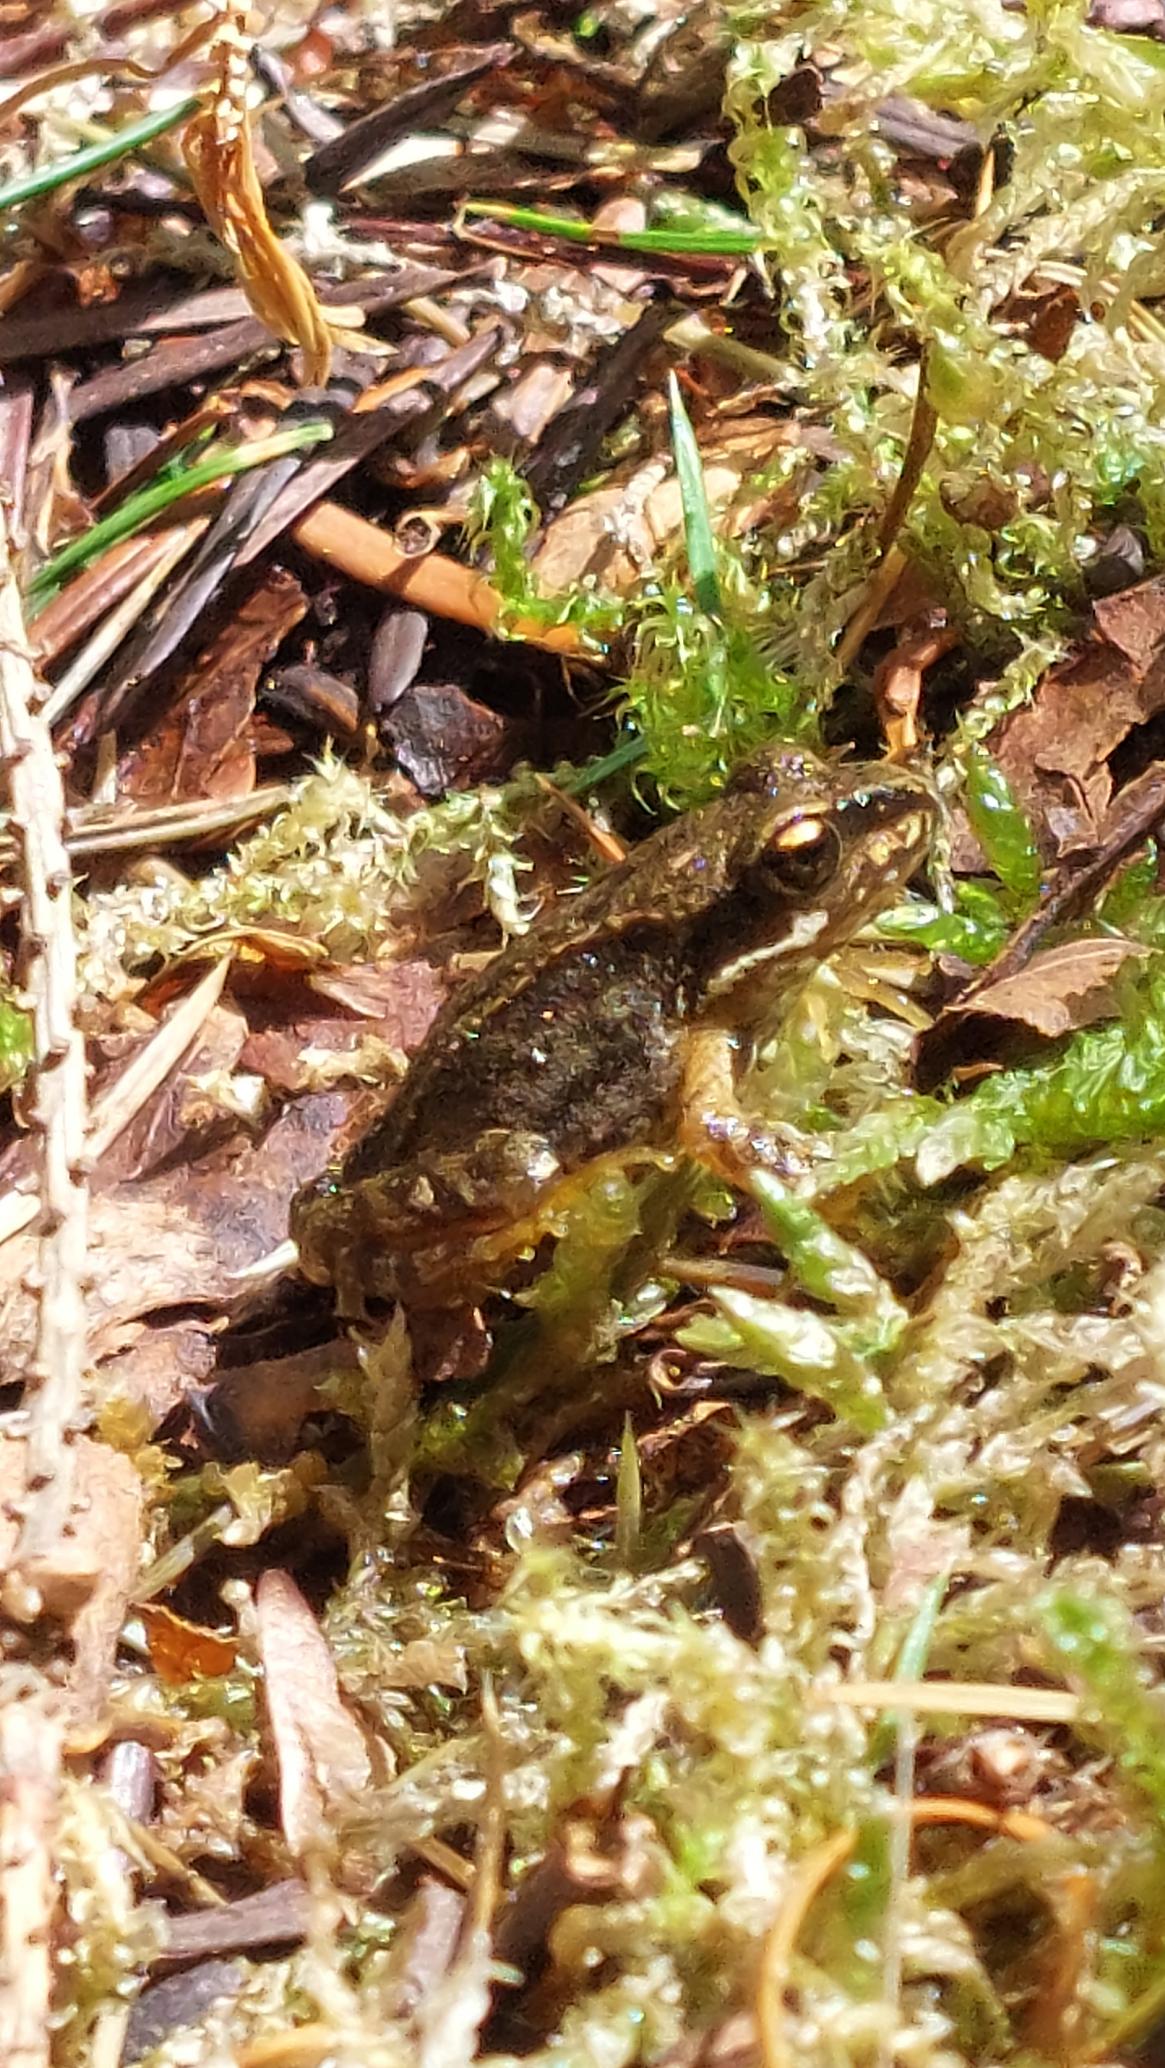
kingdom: Animalia
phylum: Chordata
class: Amphibia
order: Anura
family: Ranidae
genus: Rana
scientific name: Rana temporaria
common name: Butsnudet frø
